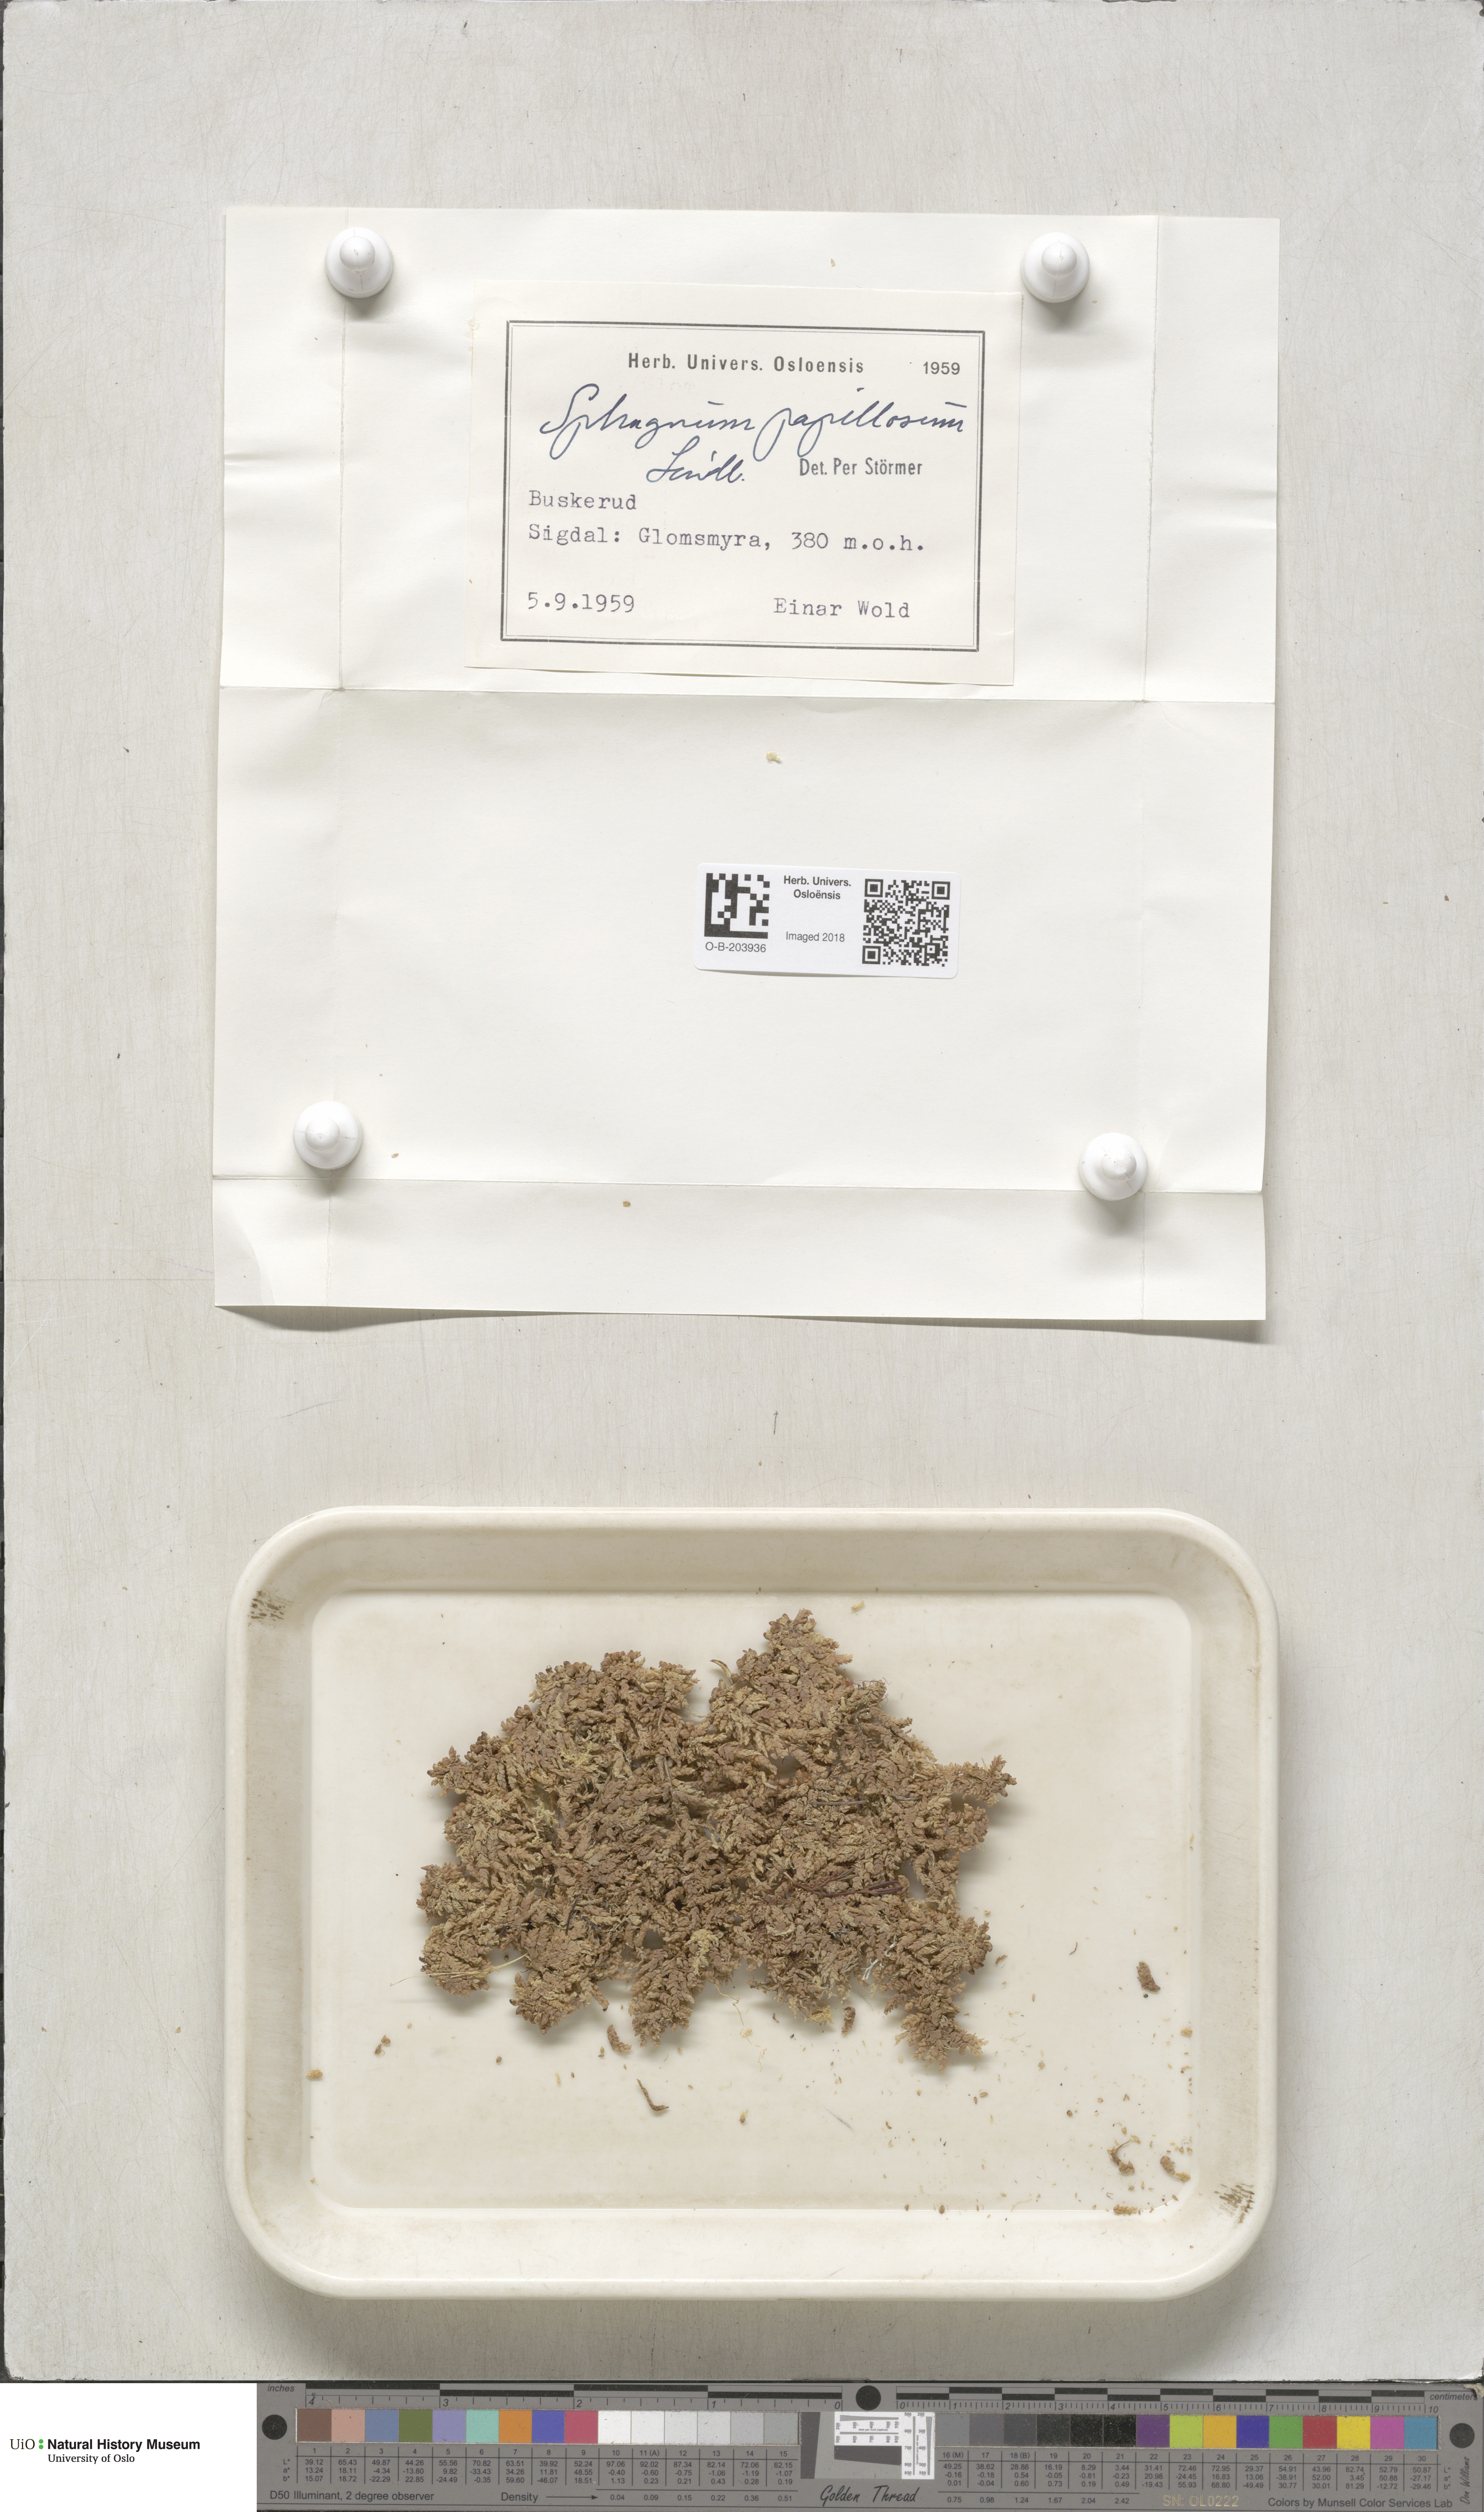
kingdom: Plantae
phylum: Bryophyta
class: Sphagnopsida
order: Sphagnales
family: Sphagnaceae
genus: Sphagnum
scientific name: Sphagnum papillosum
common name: Papillose peat moss
